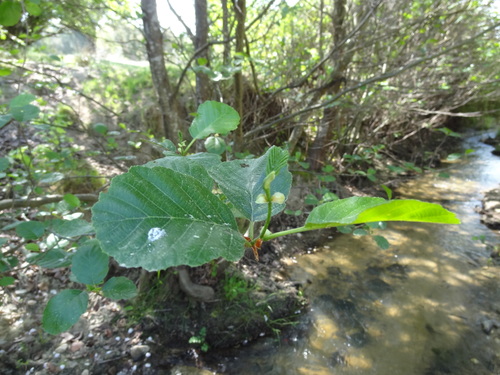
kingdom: Plantae
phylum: Tracheophyta
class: Magnoliopsida
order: Fagales
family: Betulaceae
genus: Alnus
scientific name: Alnus lusitanica
